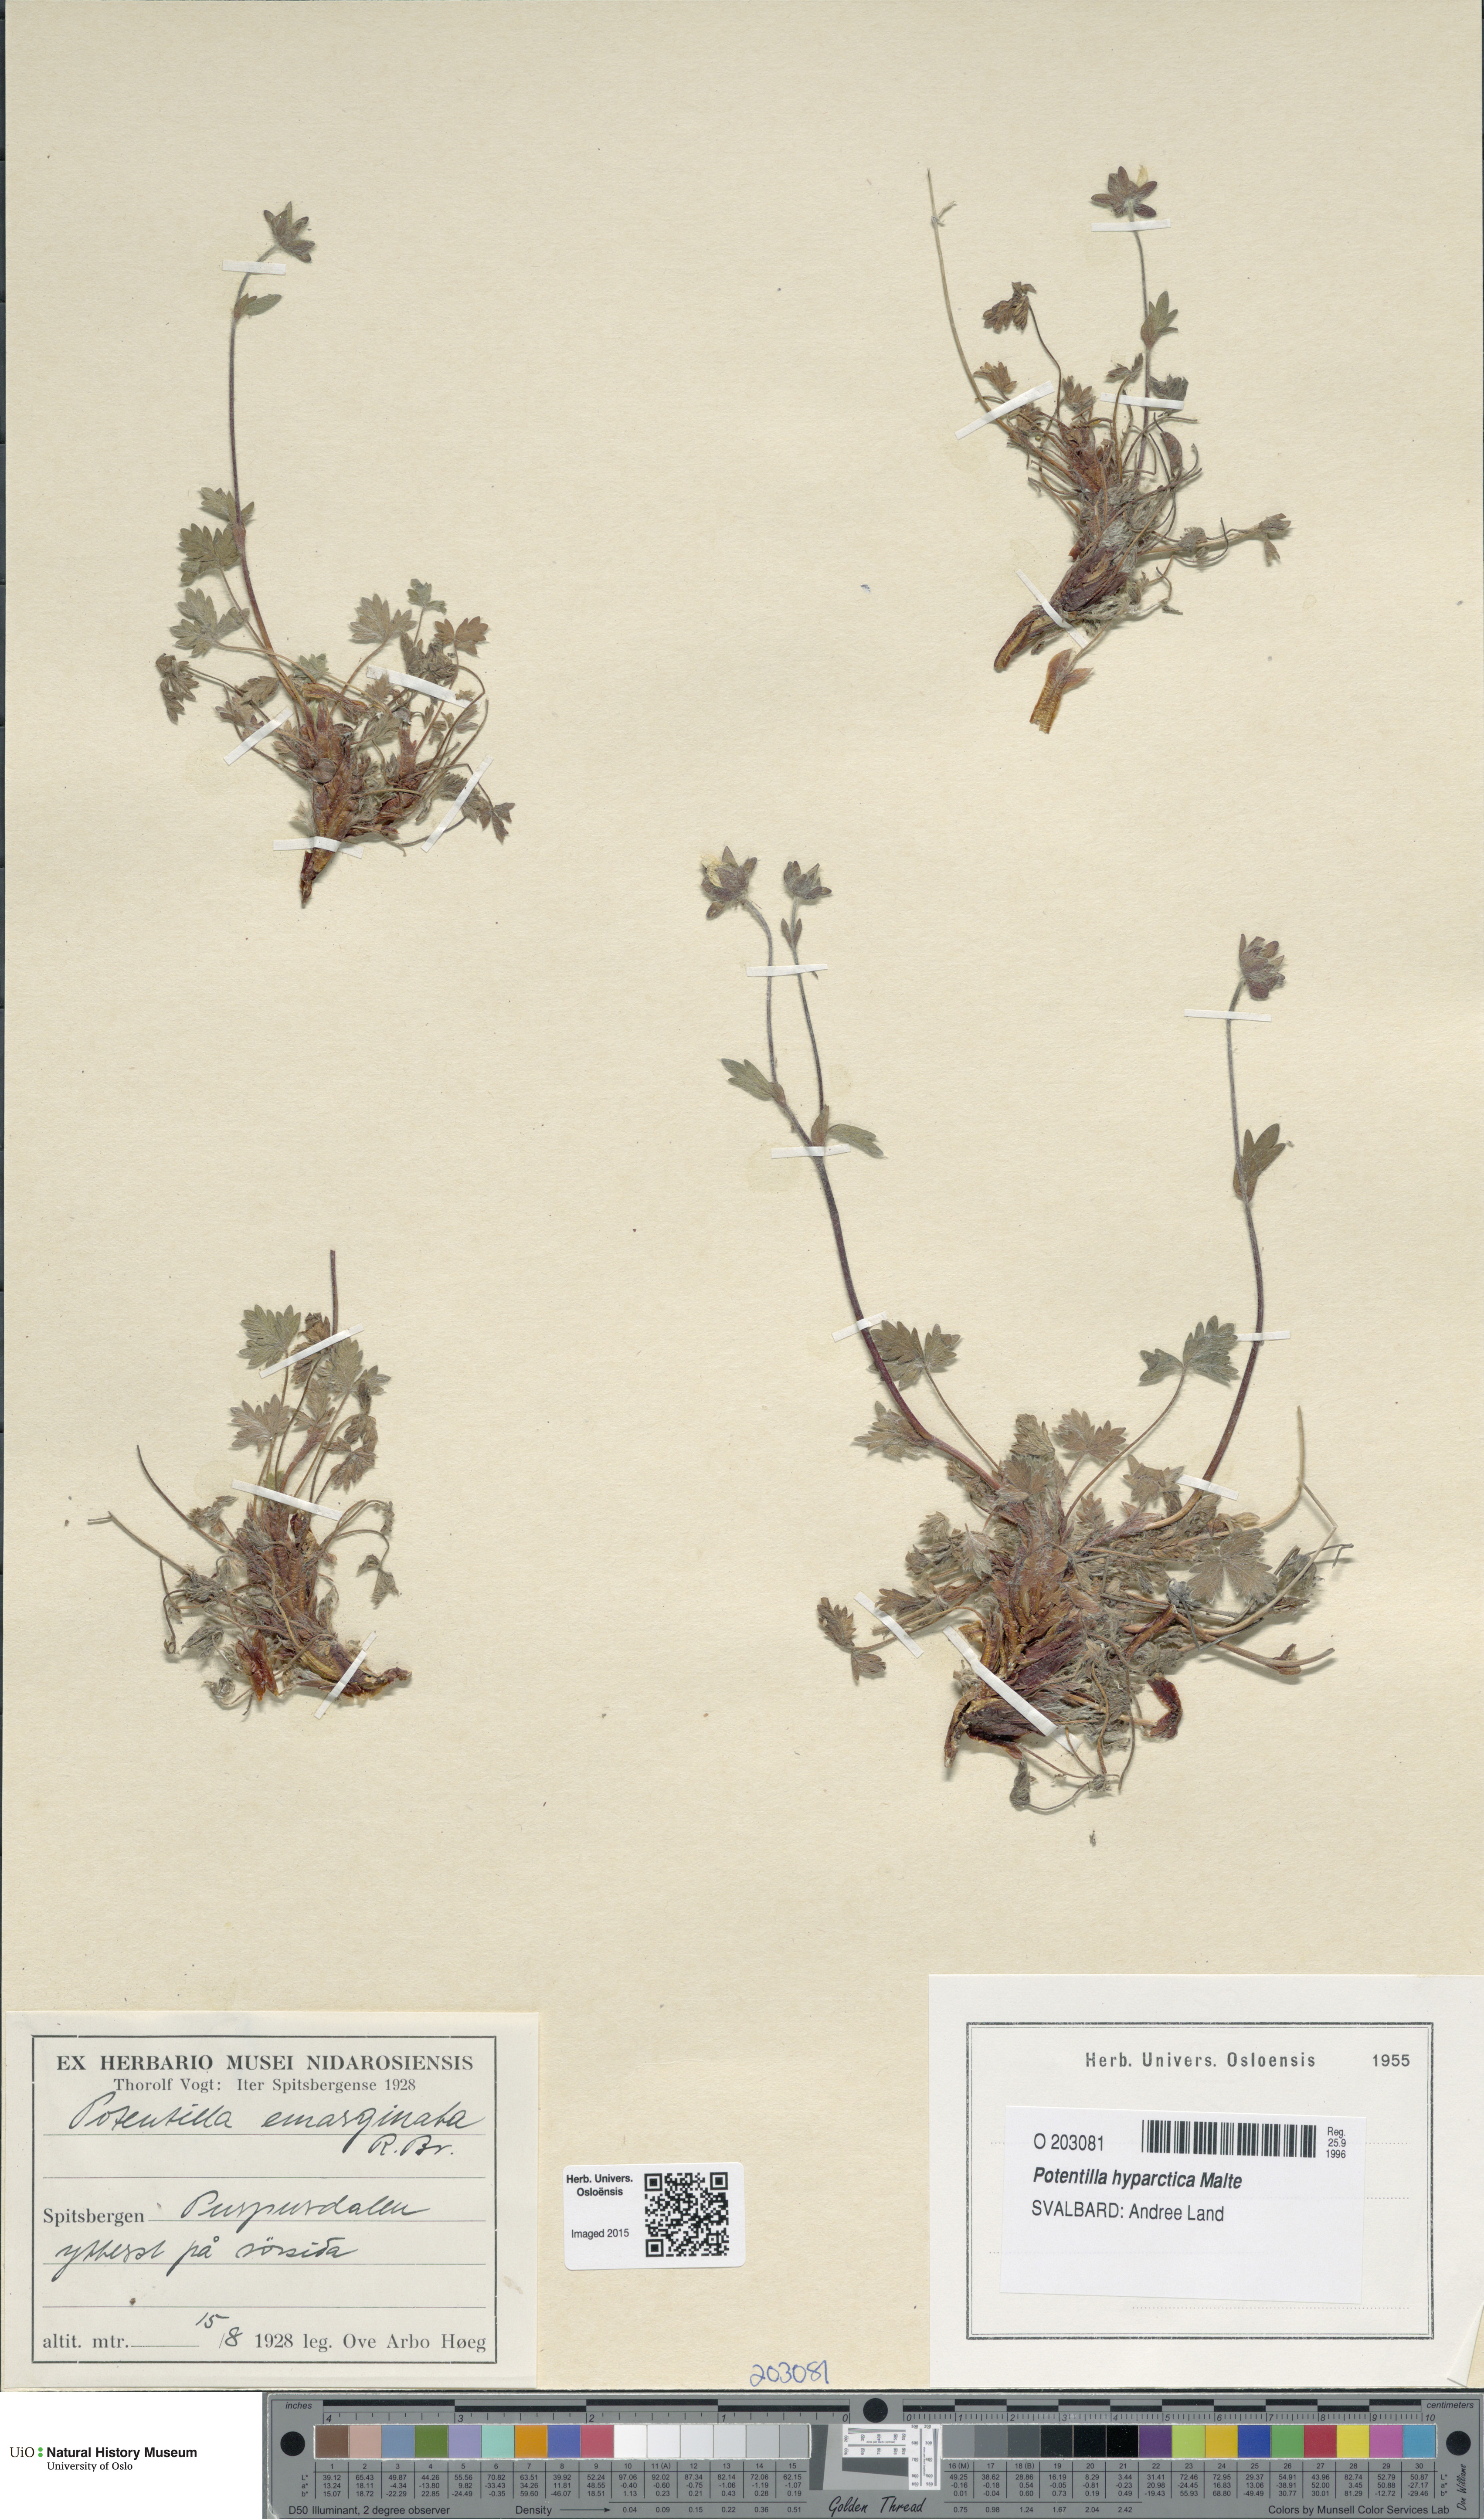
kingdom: Plantae
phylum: Tracheophyta
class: Magnoliopsida
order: Rosales
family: Rosaceae
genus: Potentilla
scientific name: Potentilla hyparctica
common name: Arctic cinquefoil
